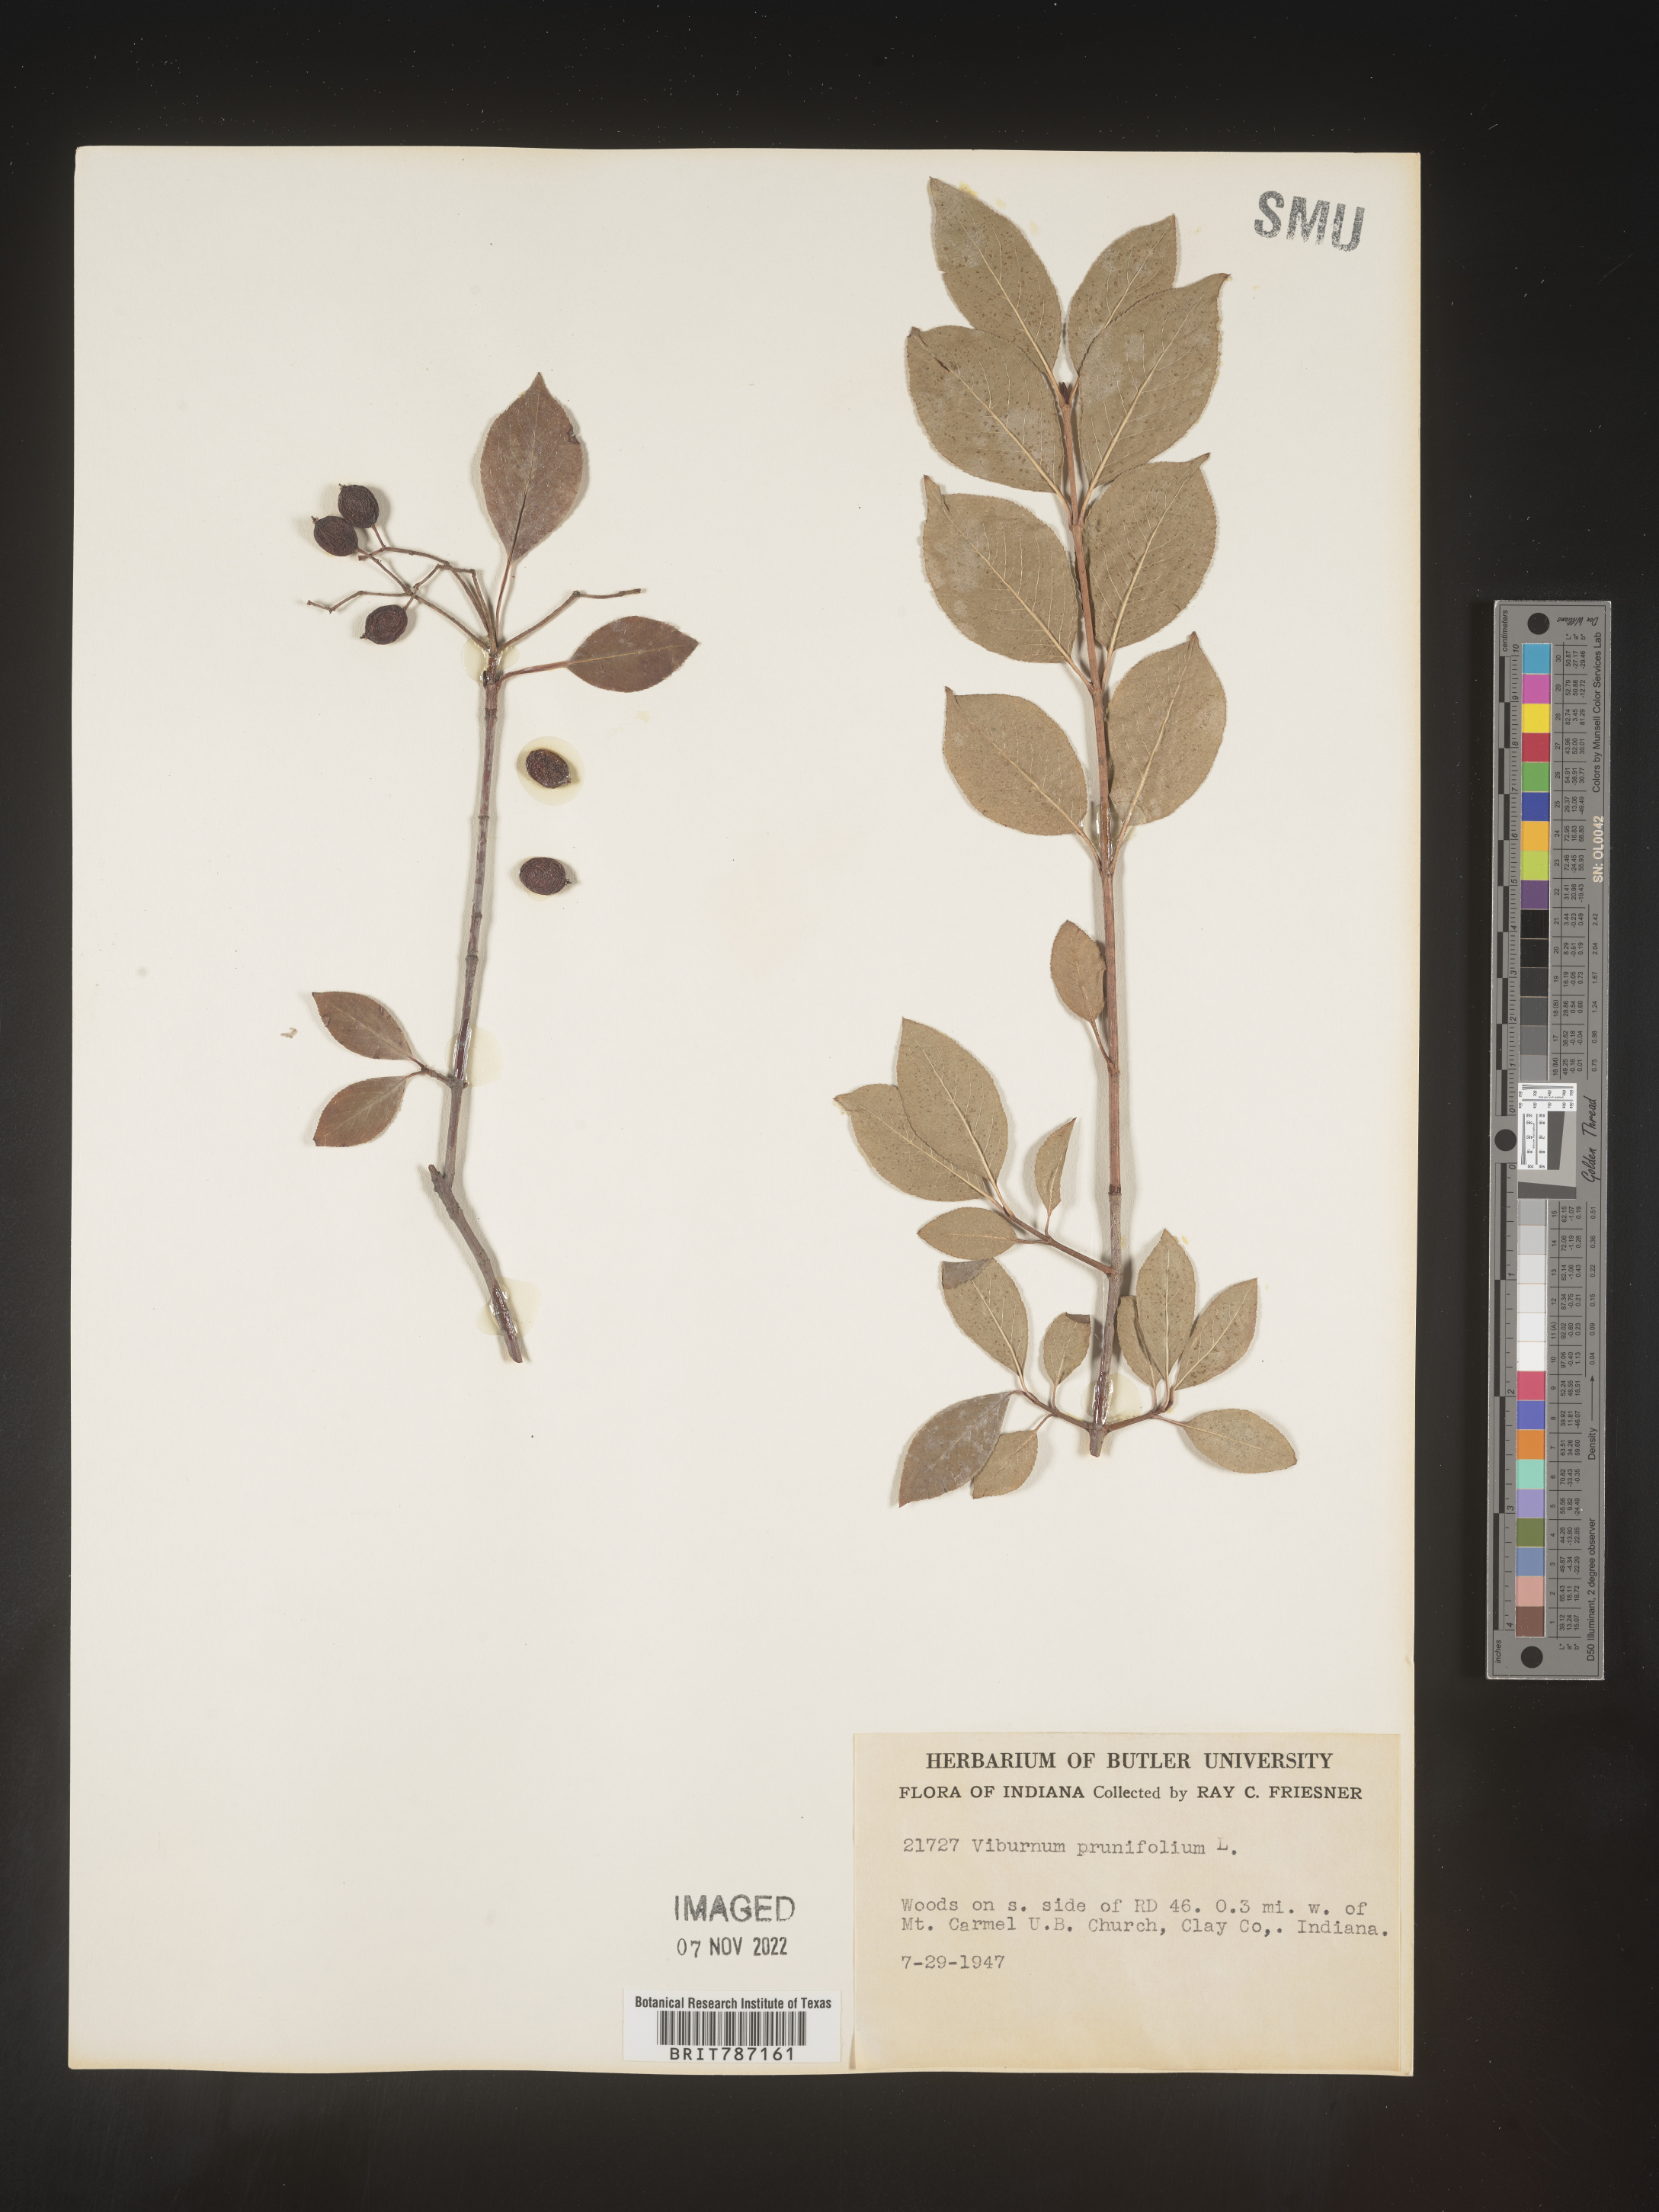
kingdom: Plantae
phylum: Tracheophyta
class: Magnoliopsida
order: Dipsacales
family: Viburnaceae
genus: Viburnum
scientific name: Viburnum prunifolium
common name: Black haw
